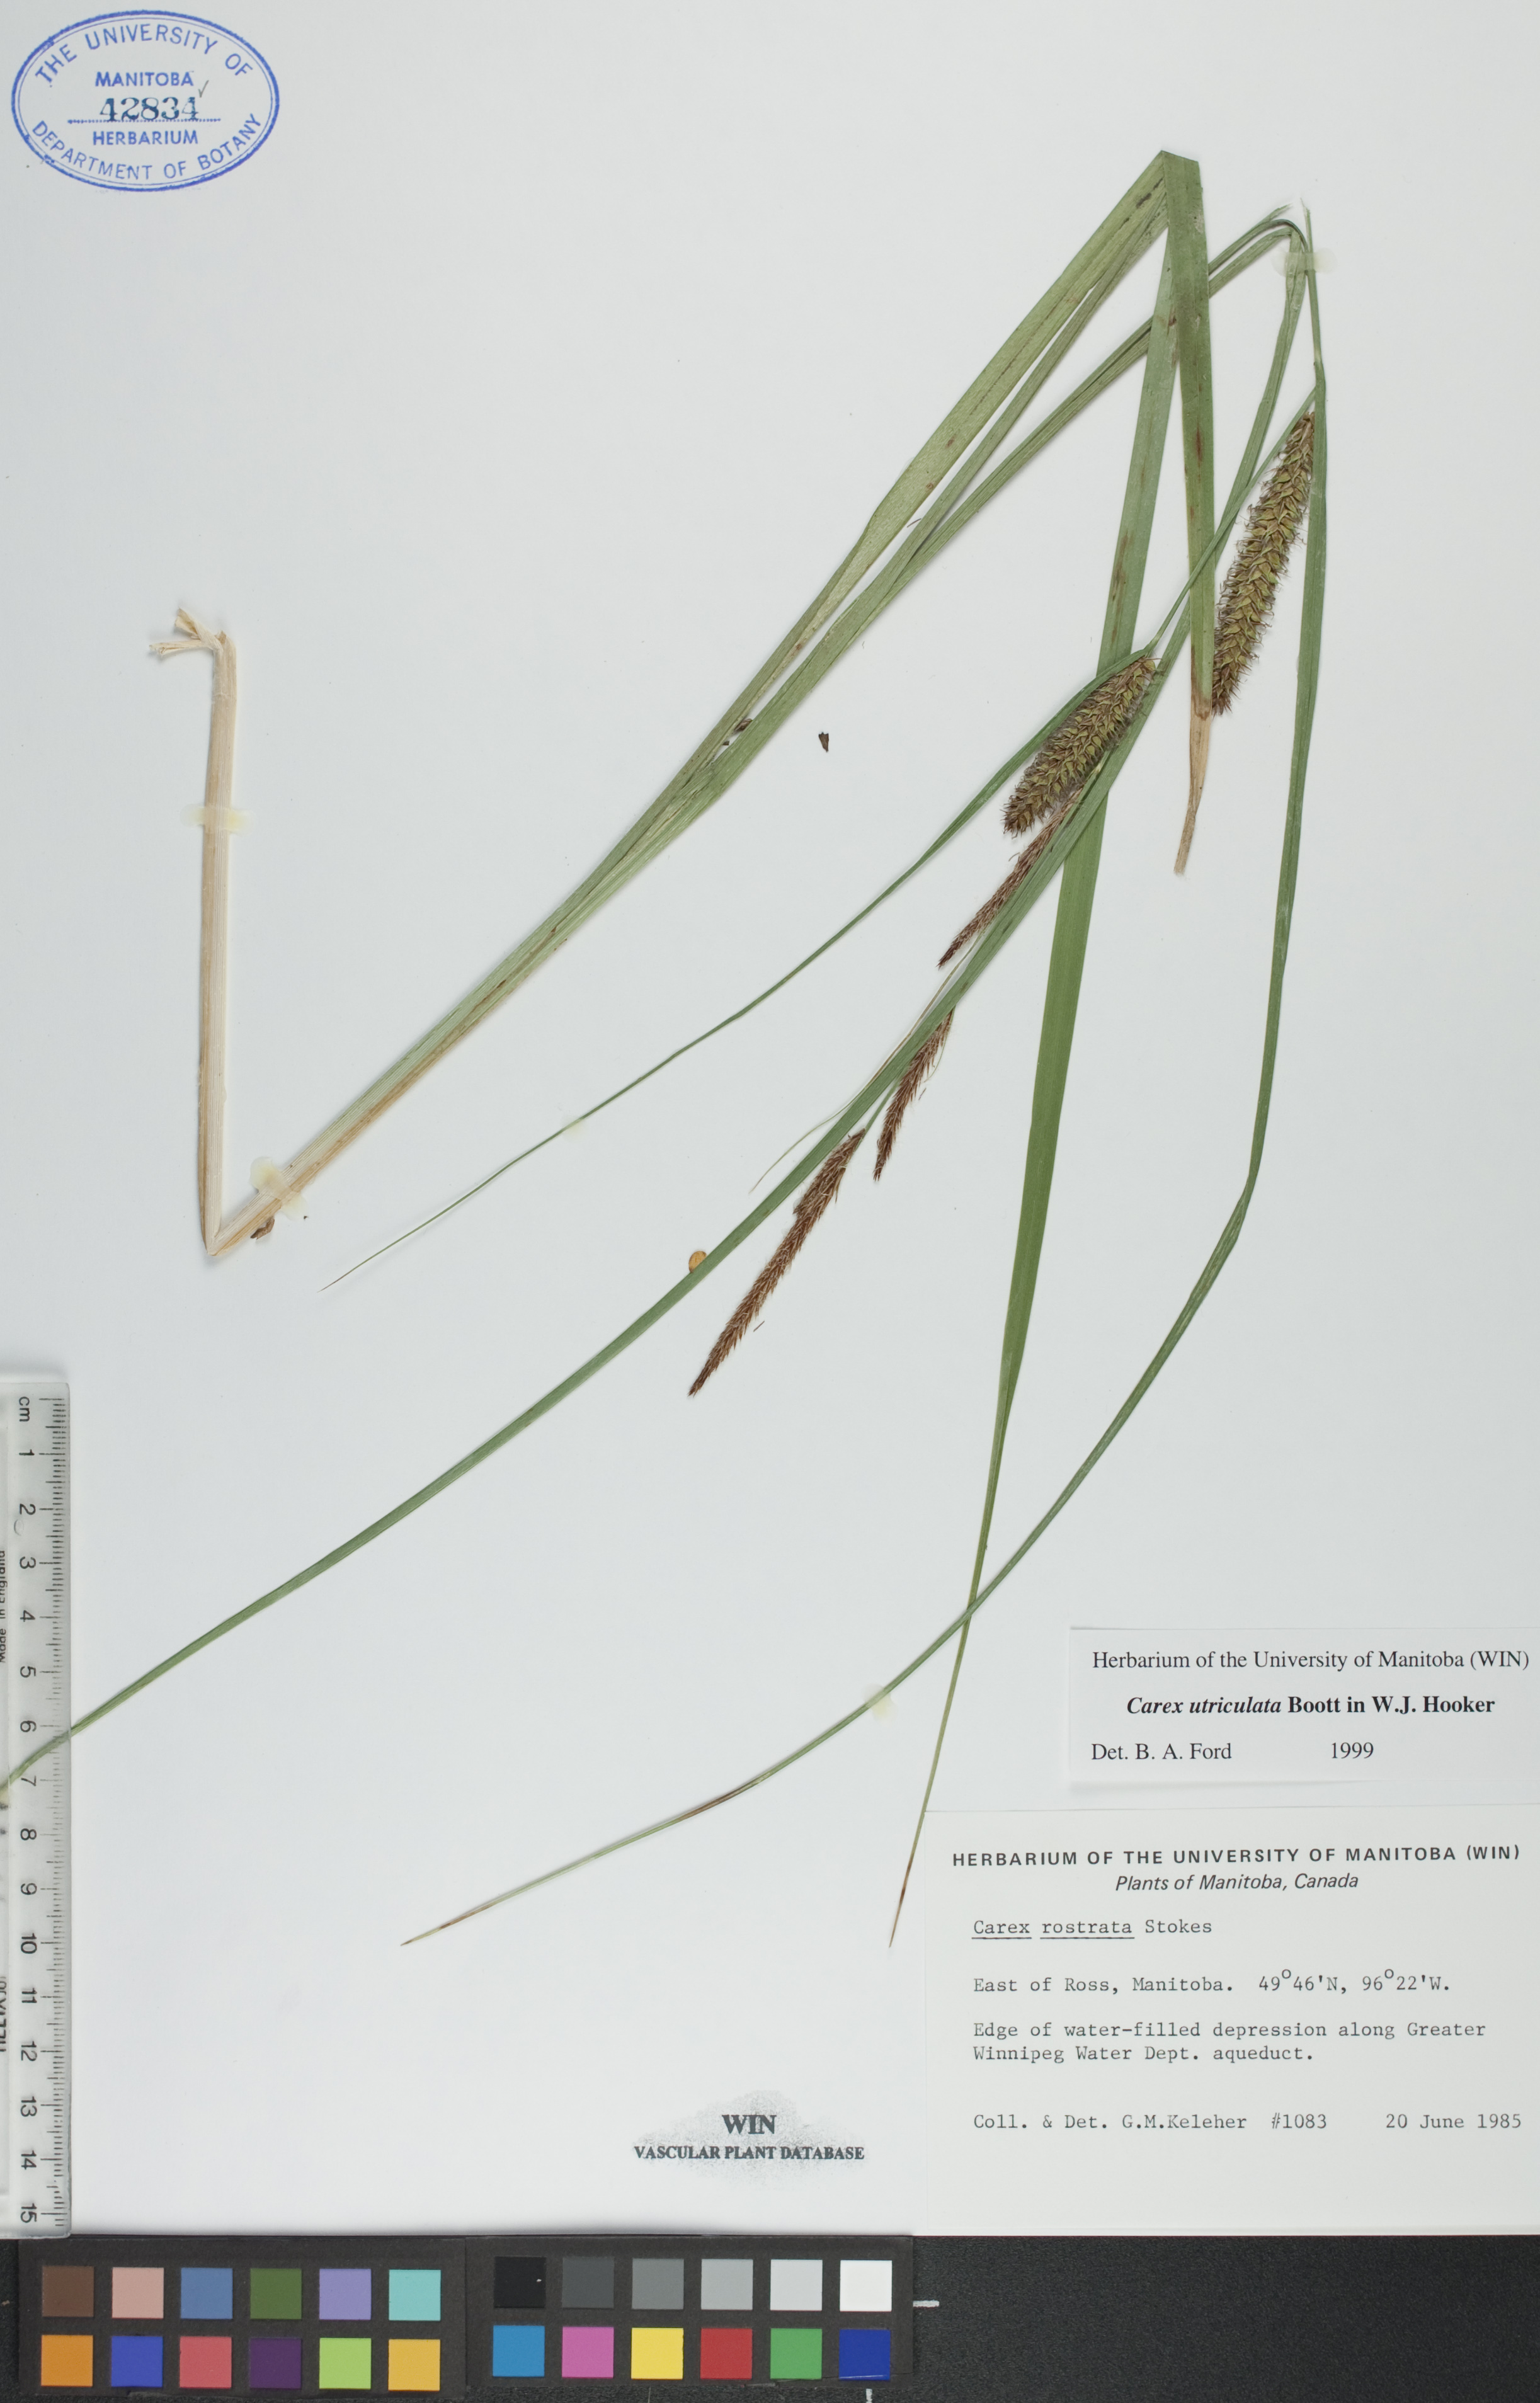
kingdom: Plantae
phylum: Tracheophyta
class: Liliopsida
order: Poales
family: Cyperaceae
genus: Carex
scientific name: Carex utriculata
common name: Beaked sedge
